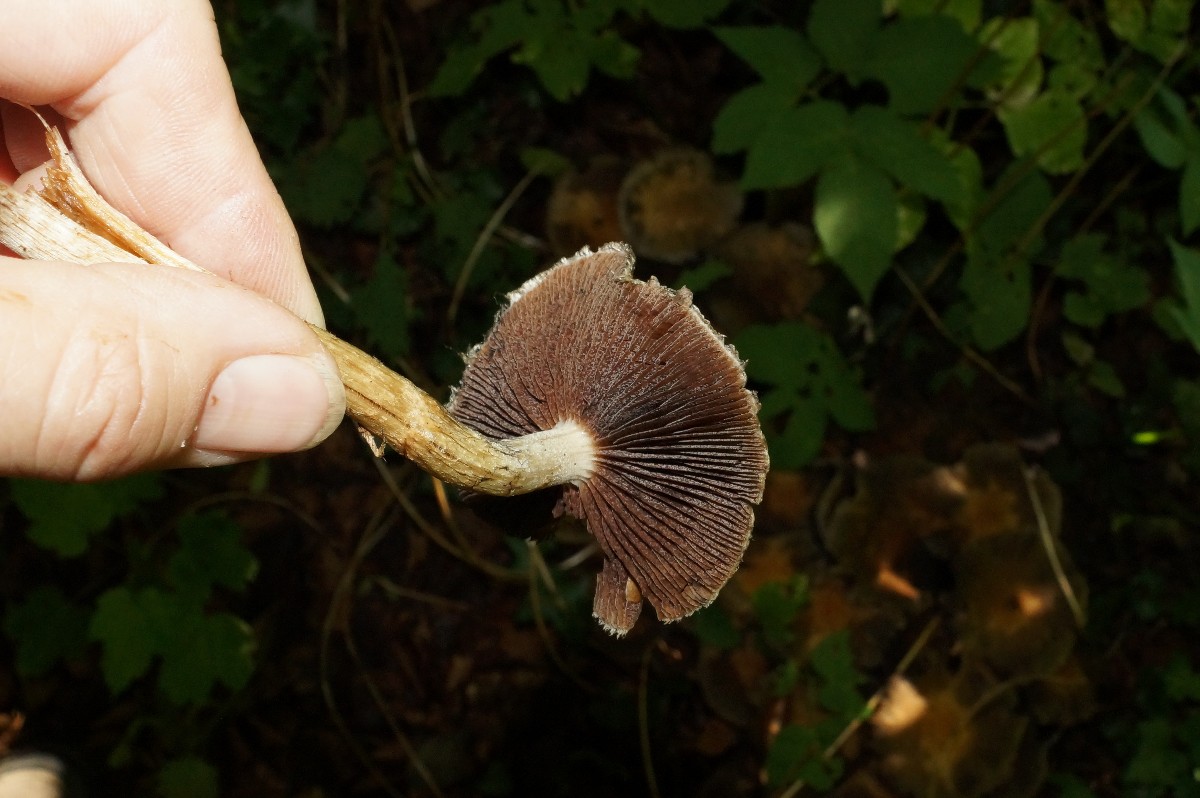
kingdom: Fungi
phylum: Basidiomycota
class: Agaricomycetes
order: Agaricales
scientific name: Agaricales
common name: champignonordenen
